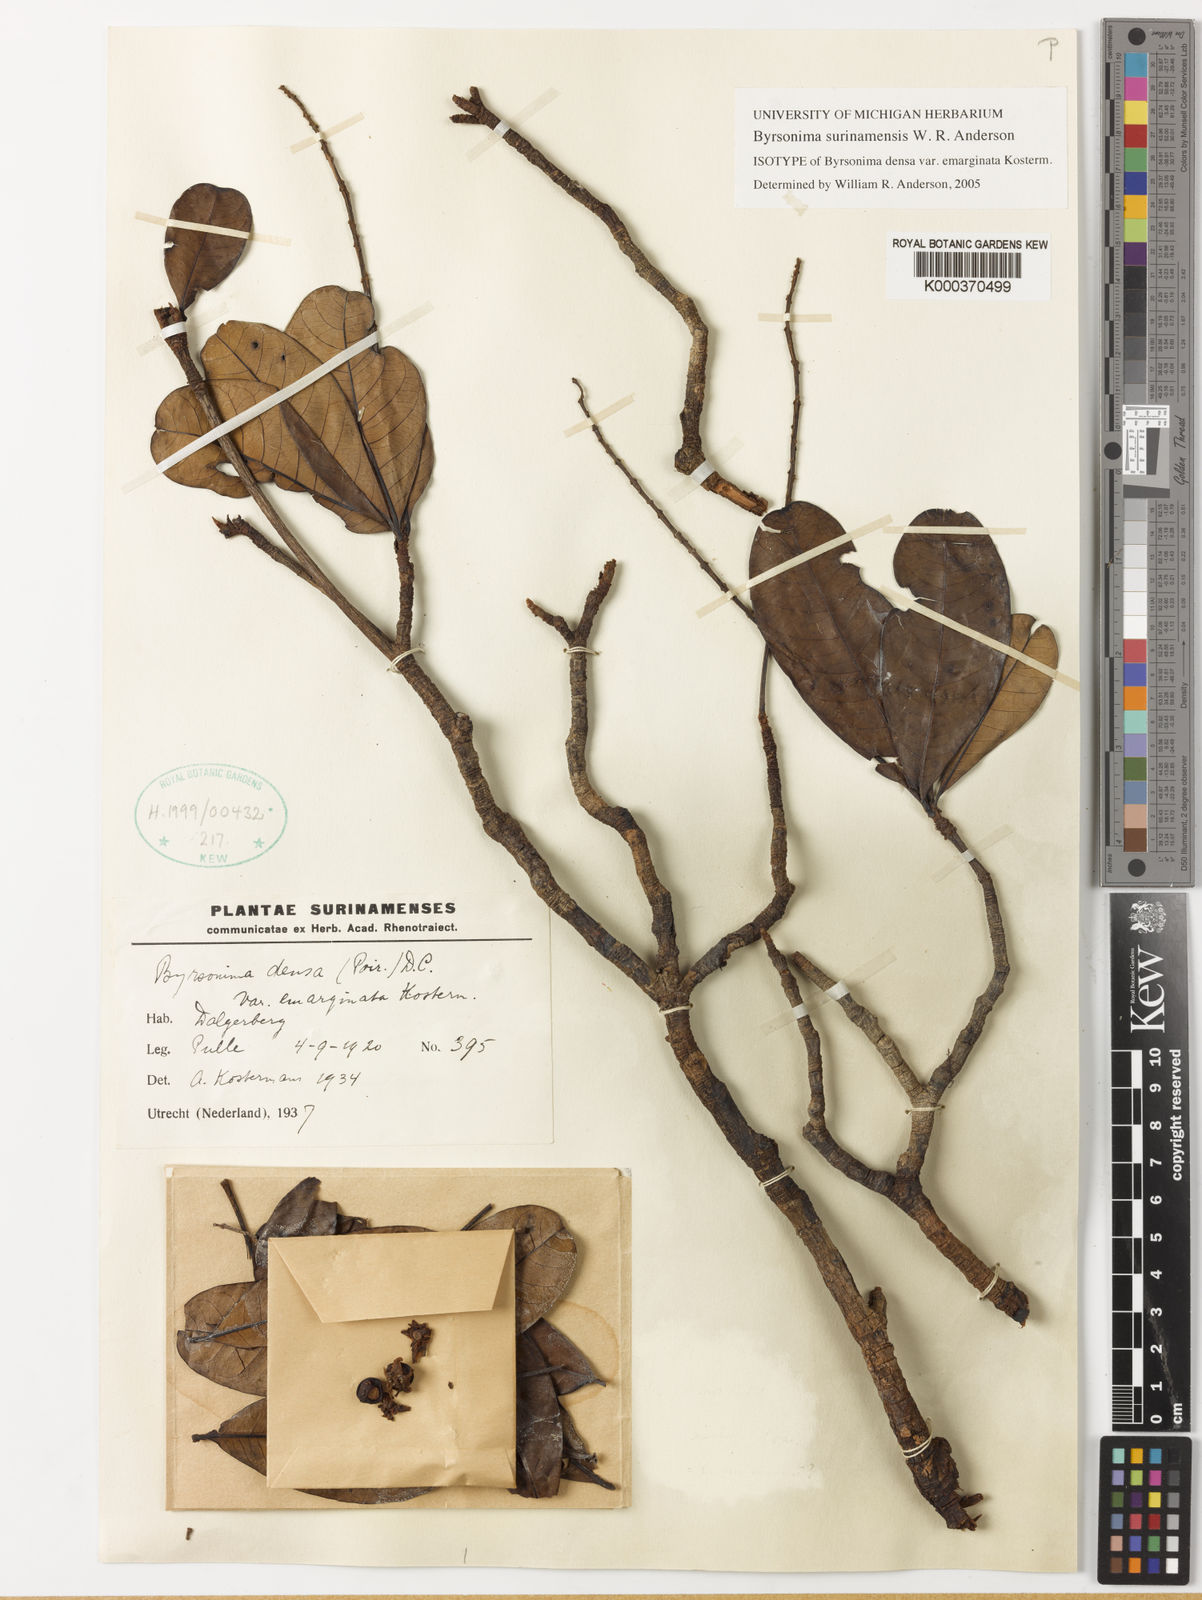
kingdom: Plantae
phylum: Tracheophyta
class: Magnoliopsida
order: Malpighiales
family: Malpighiaceae
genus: Byrsonima
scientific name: Byrsonima surinamensis
